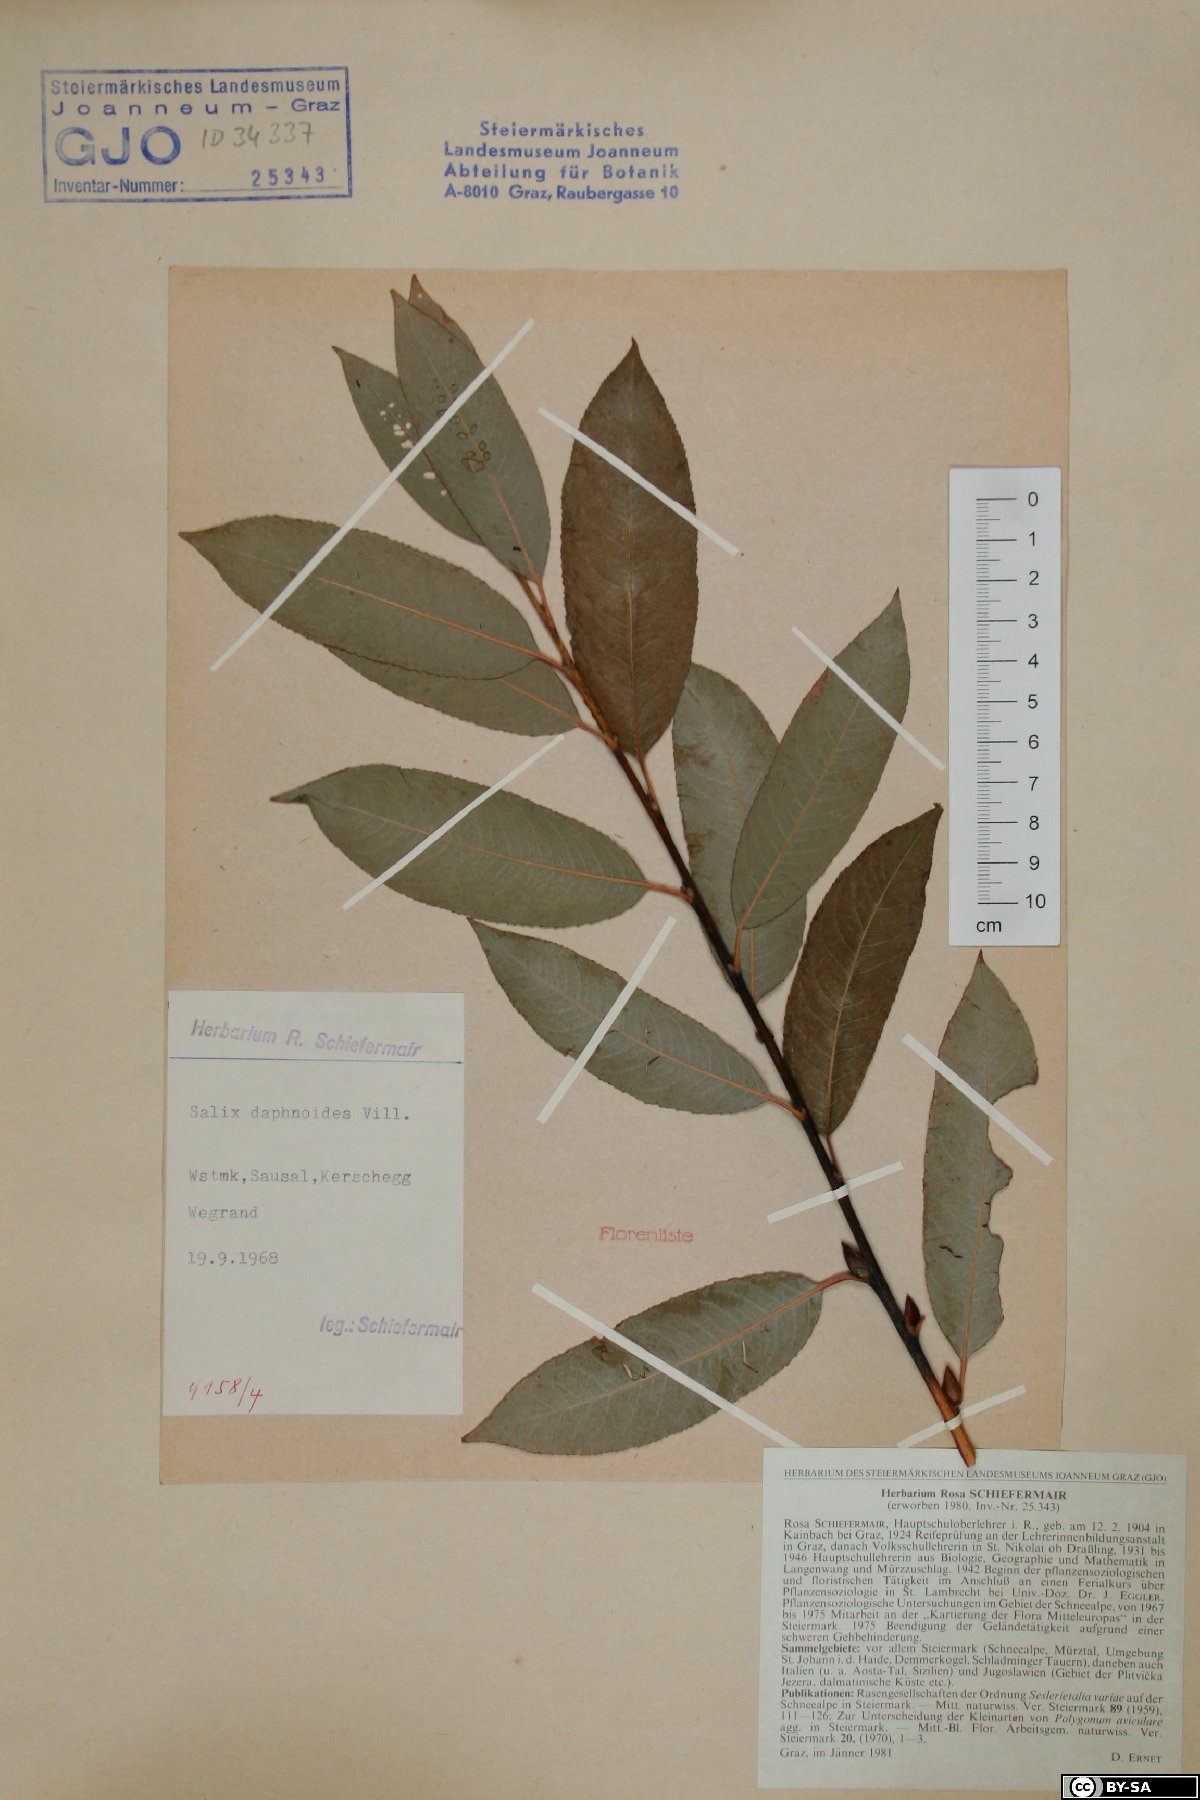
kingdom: Plantae
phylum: Tracheophyta
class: Magnoliopsida
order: Malpighiales
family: Salicaceae
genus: Salix
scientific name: Salix daphnoides
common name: European violet-willow
